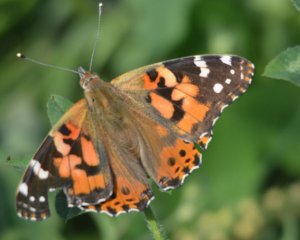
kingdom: Animalia
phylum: Arthropoda
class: Insecta
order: Lepidoptera
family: Nymphalidae
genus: Vanessa
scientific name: Vanessa cardui
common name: Painted Lady
